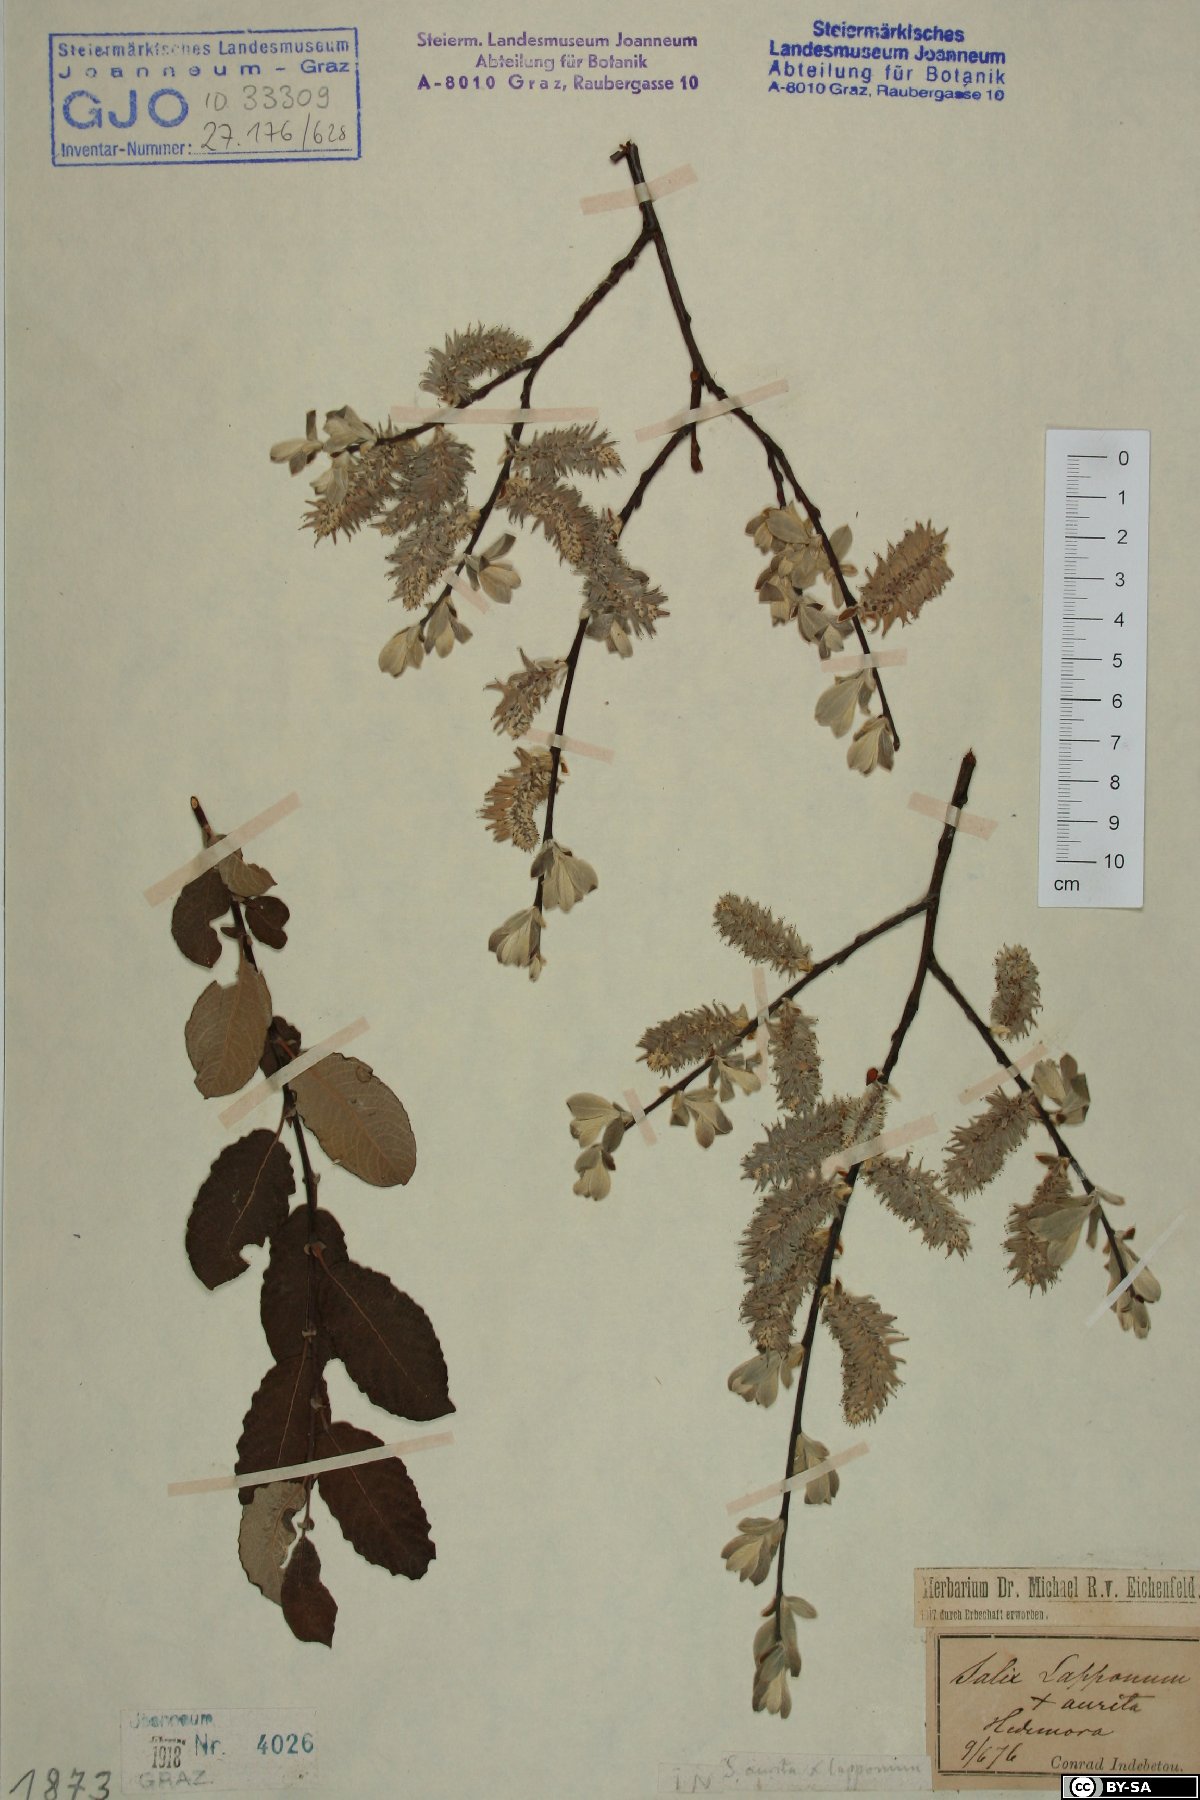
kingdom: Plantae
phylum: Tracheophyta
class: Magnoliopsida
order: Malpighiales
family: Salicaceae
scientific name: Salicaceae
